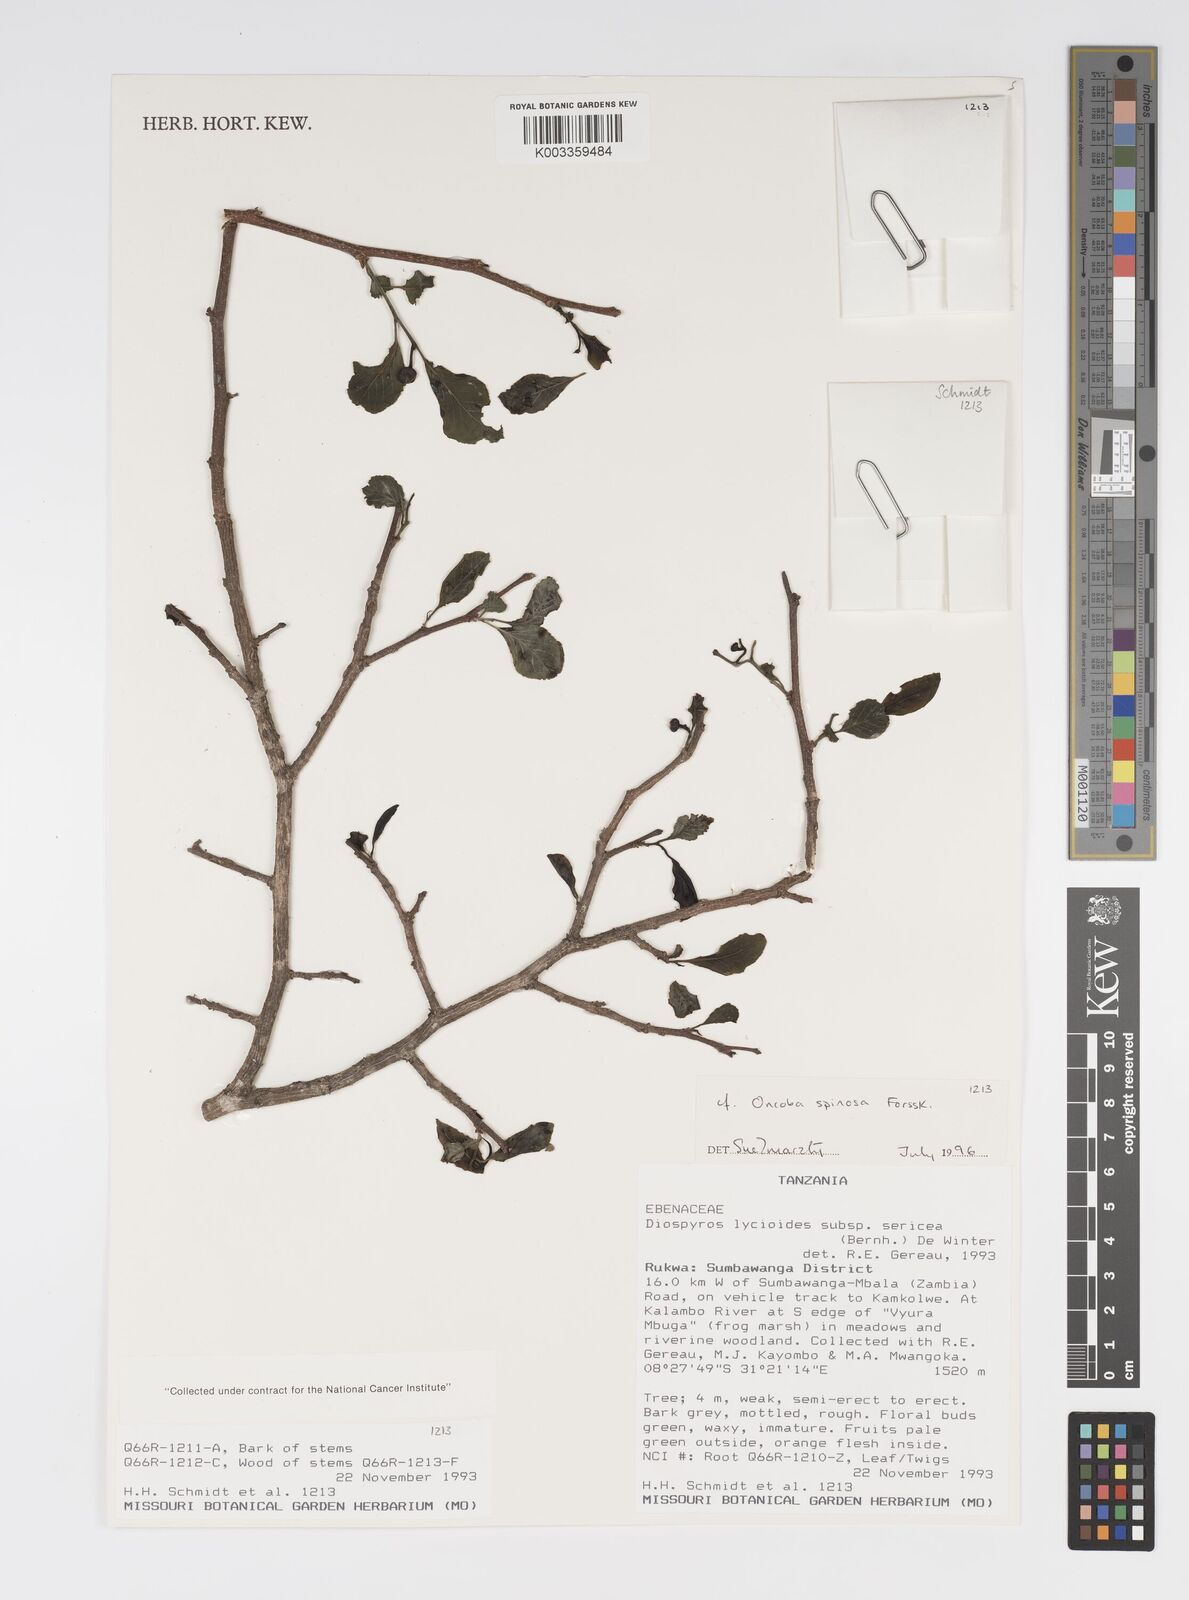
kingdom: Plantae
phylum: Tracheophyta
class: Magnoliopsida
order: Malpighiales
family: Salicaceae
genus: Oncoba
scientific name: Oncoba spinosa
